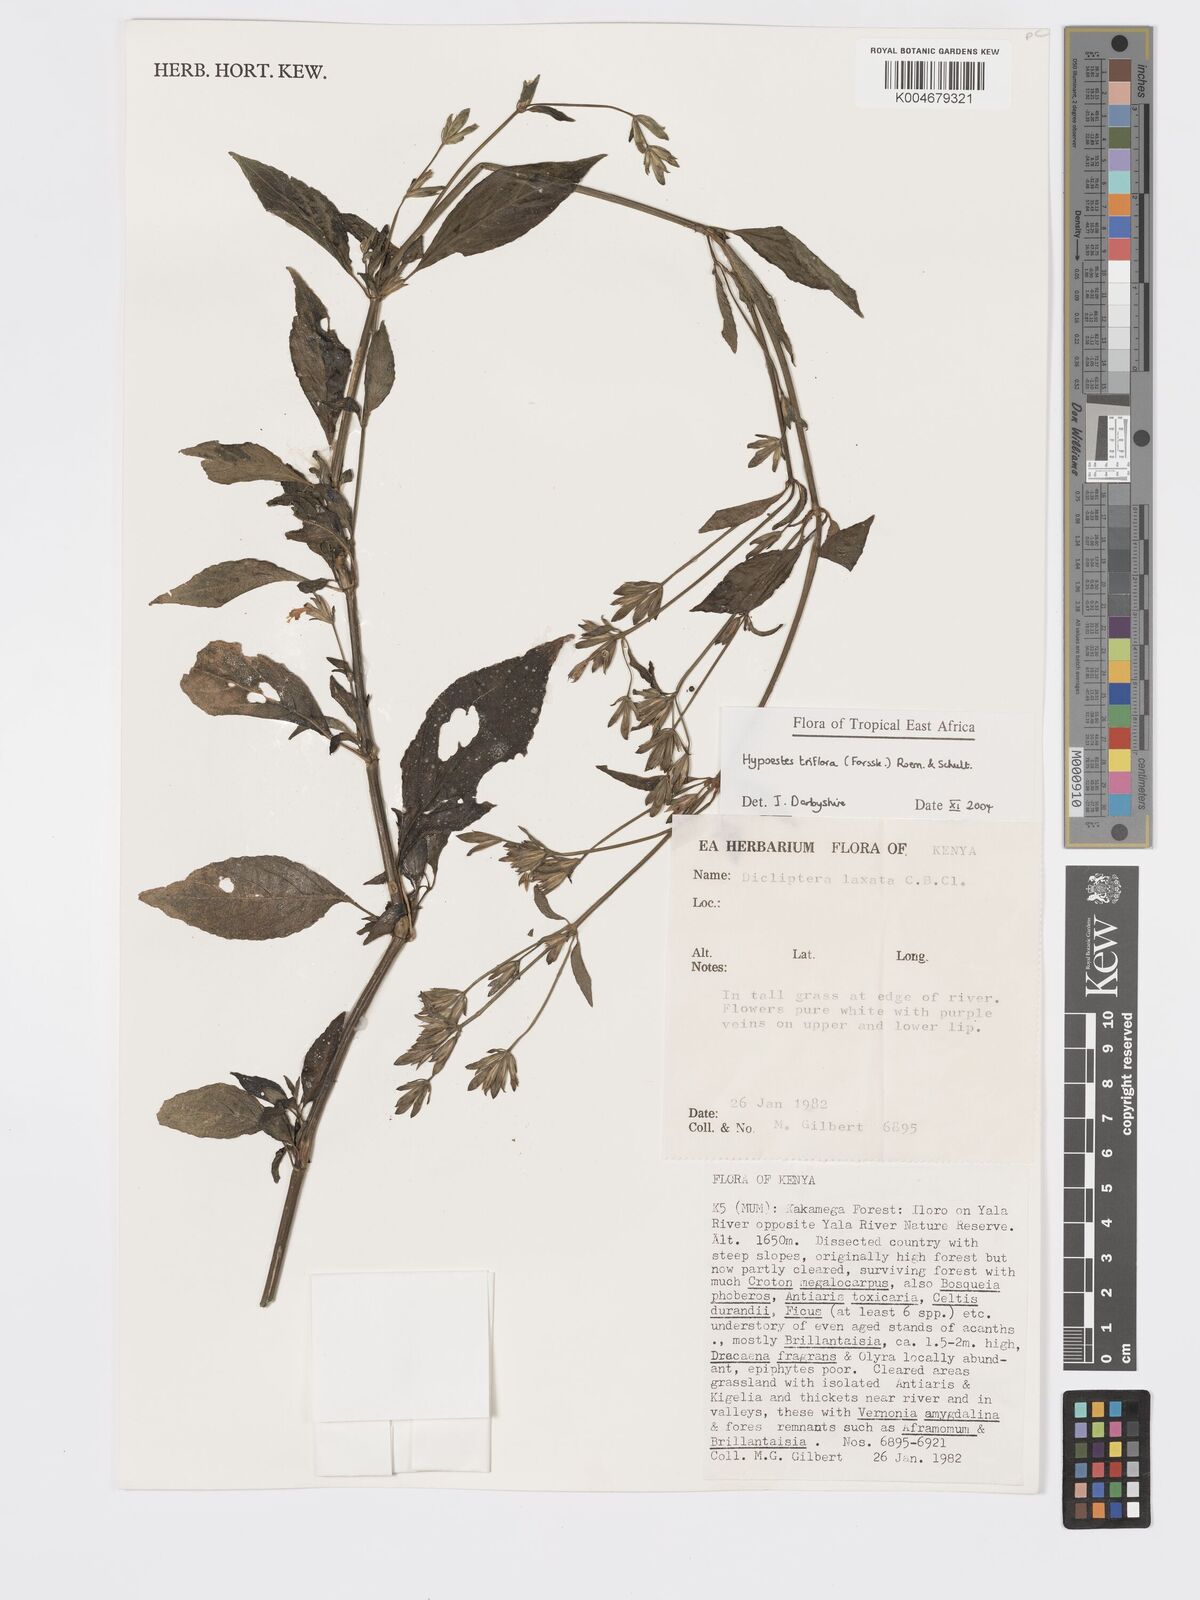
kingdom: Plantae
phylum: Tracheophyta
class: Magnoliopsida
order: Lamiales
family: Acanthaceae
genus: Hypoestes
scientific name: Hypoestes triflora
